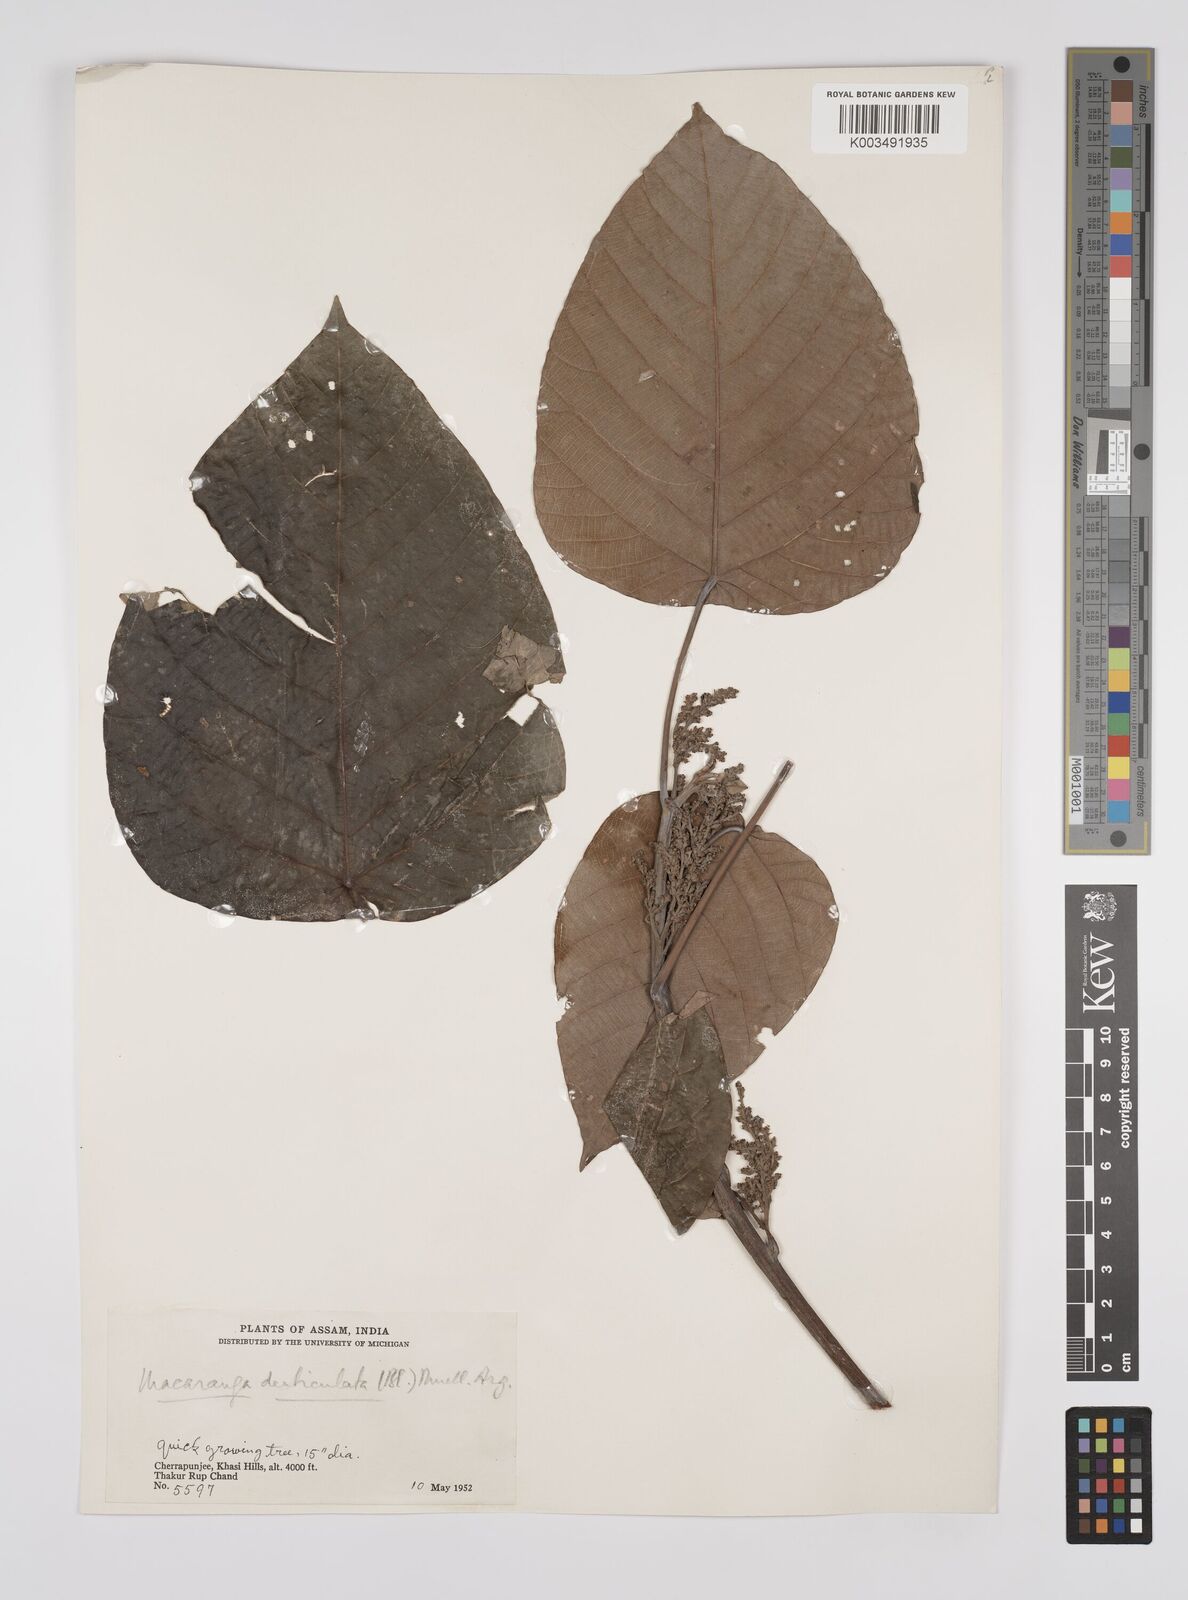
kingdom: Plantae
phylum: Tracheophyta
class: Magnoliopsida
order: Malpighiales
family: Euphorbiaceae
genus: Macaranga
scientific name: Macaranga denticulata
